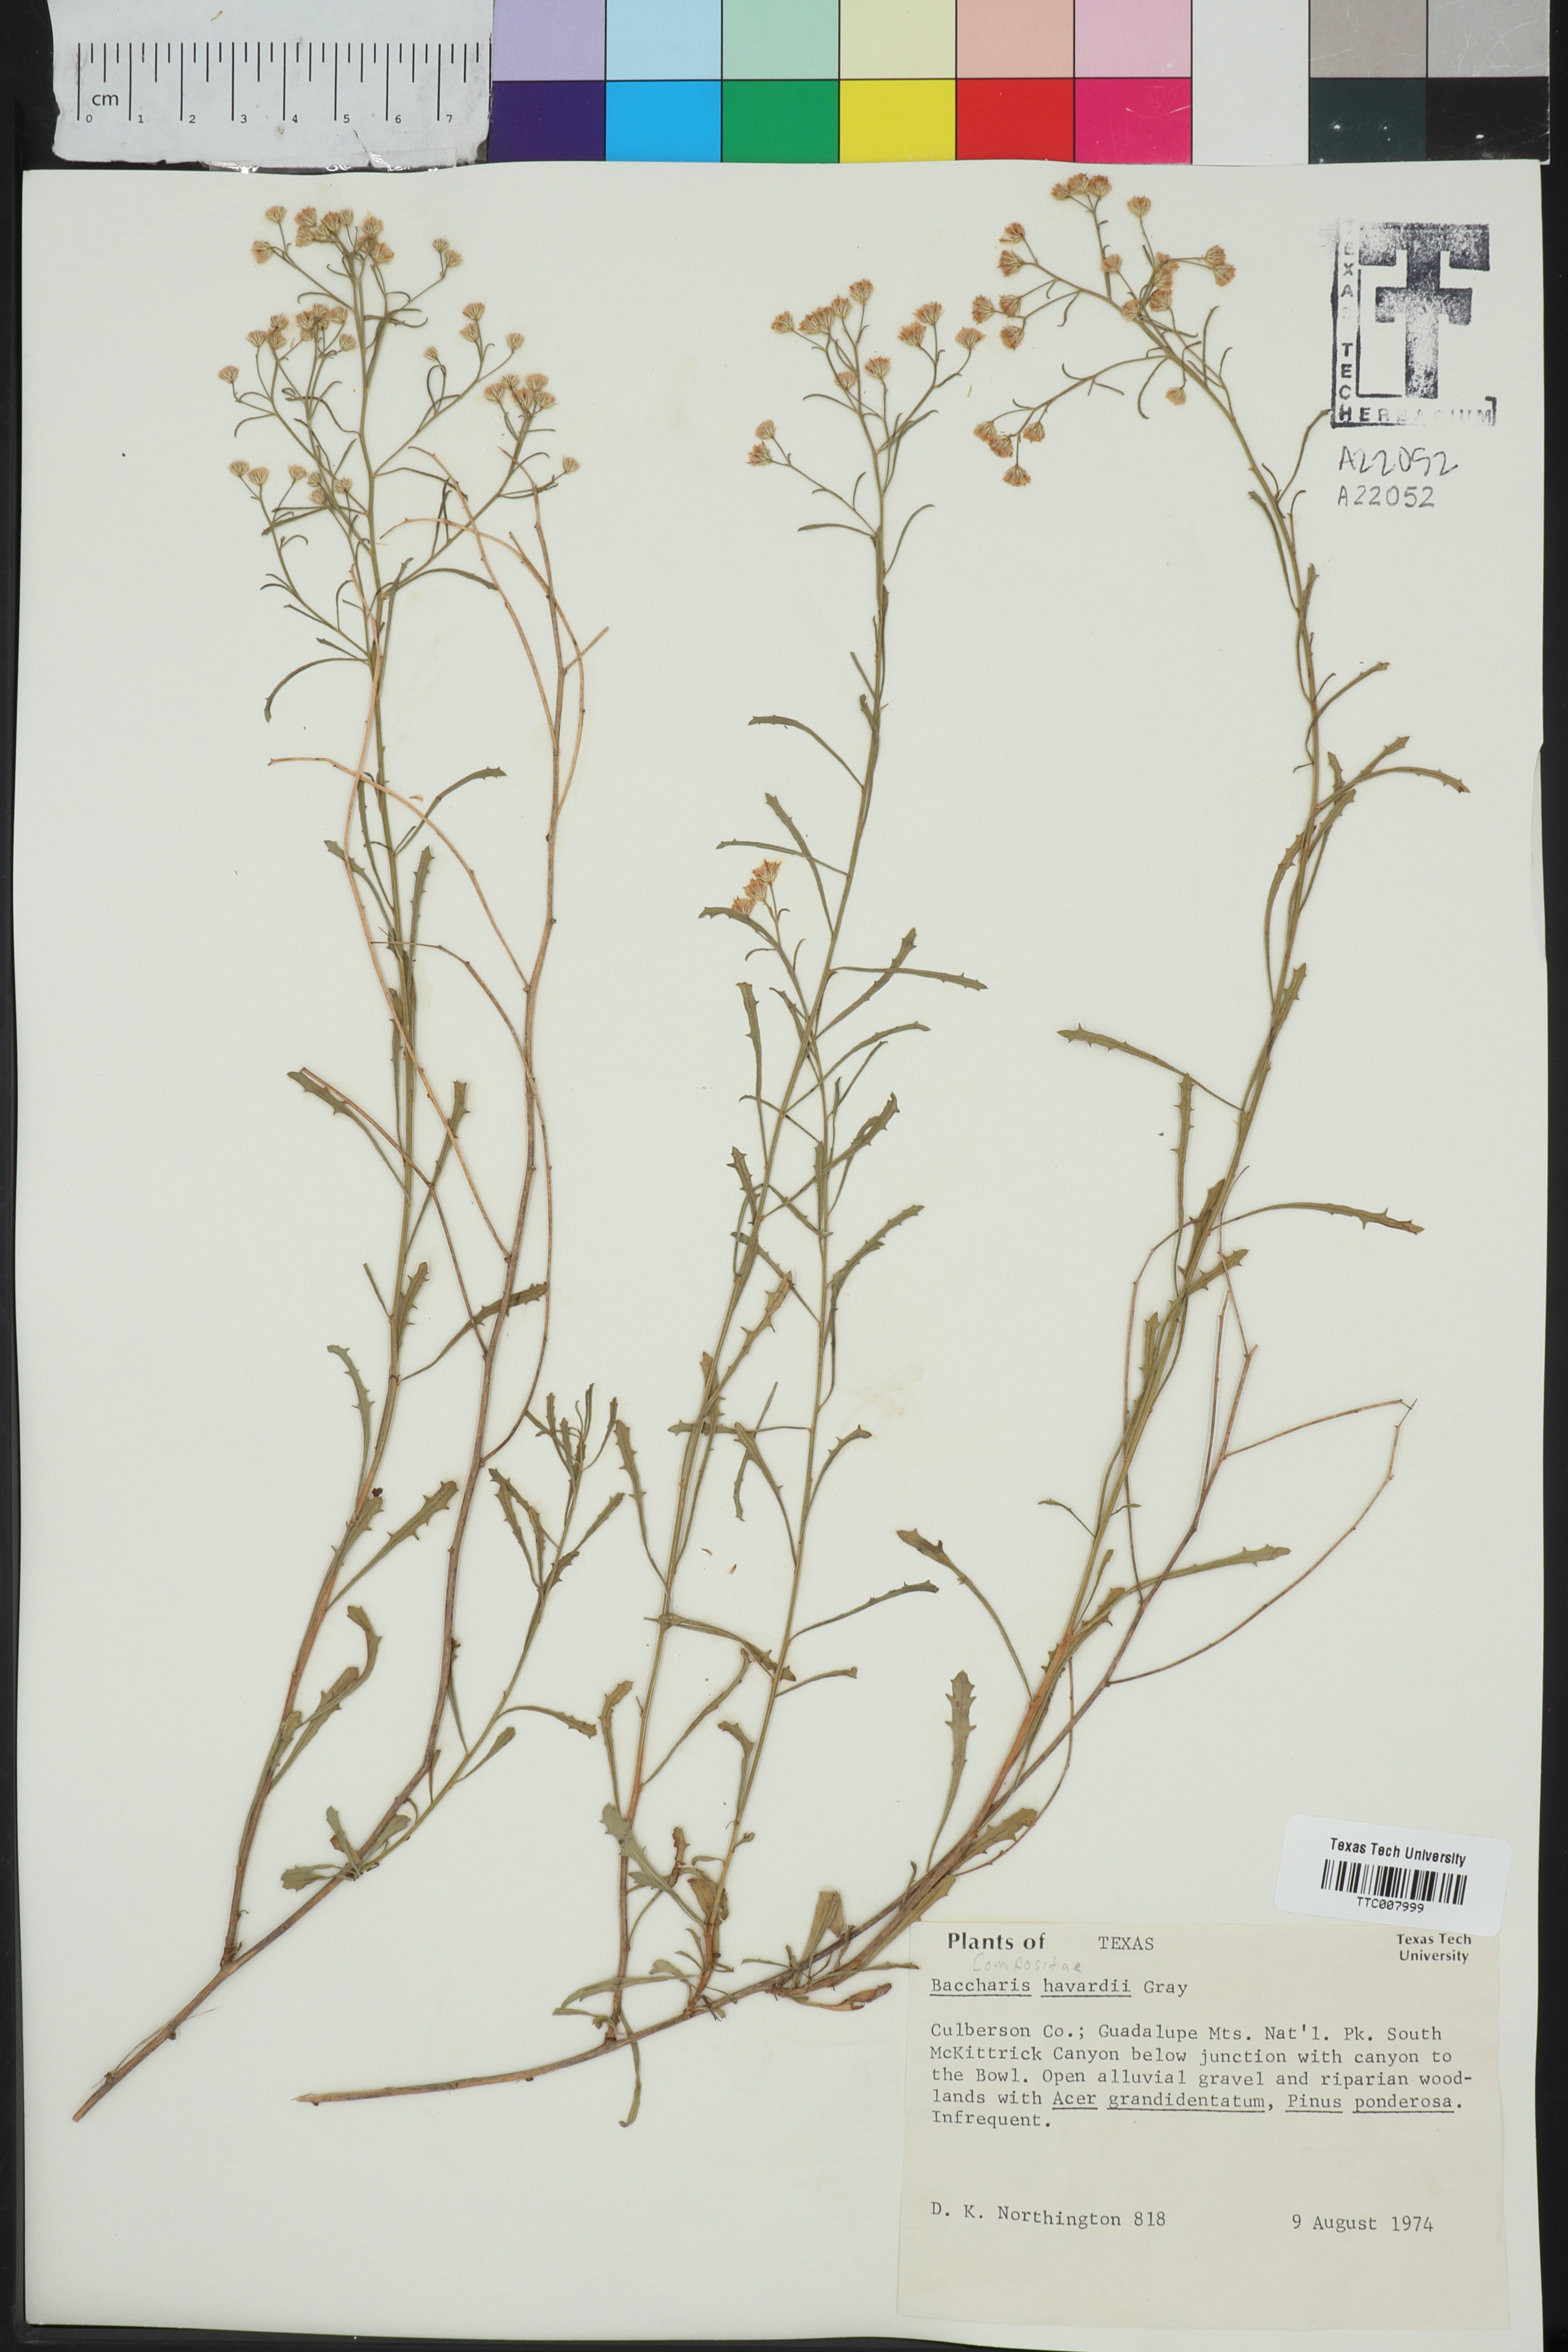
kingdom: Plantae
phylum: Tracheophyta
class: Magnoliopsida
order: Asterales
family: Asteraceae
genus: Baccharis
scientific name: Baccharis havardii
